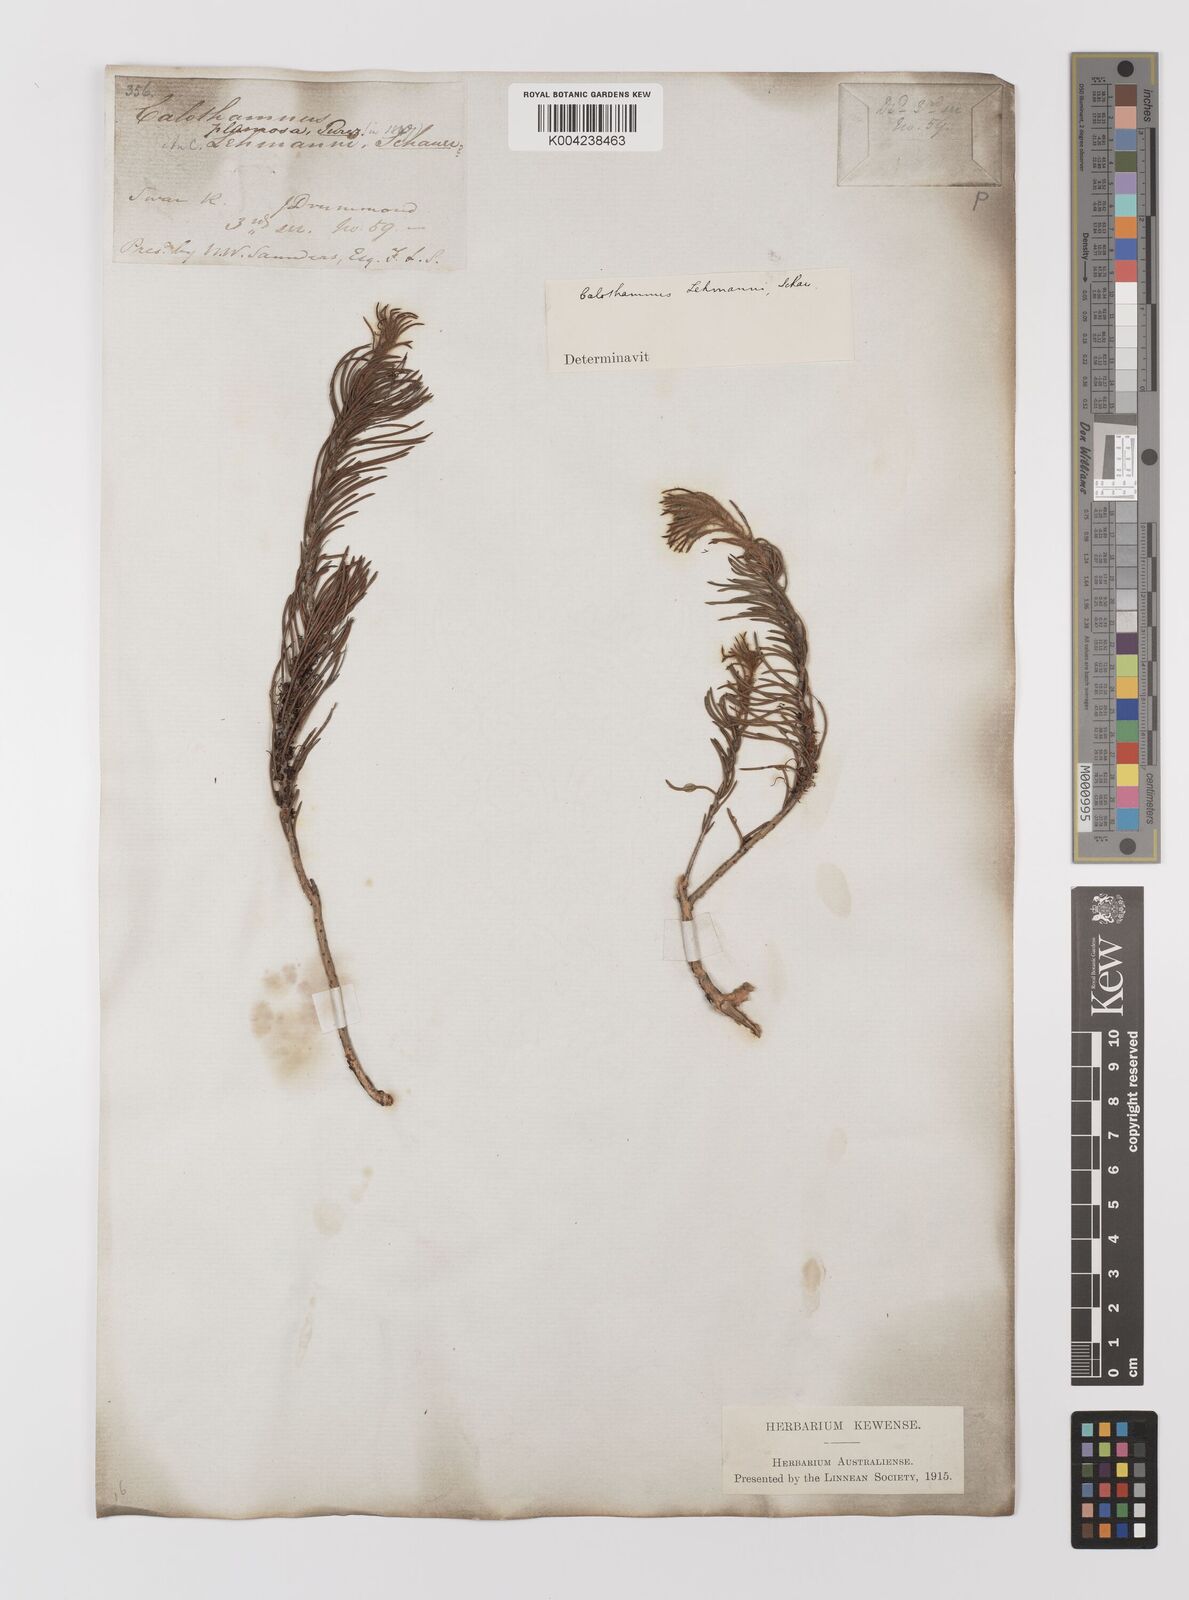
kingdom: Plantae
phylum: Tracheophyta
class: Magnoliopsida
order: Myrtales
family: Myrtaceae
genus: Melaleuca
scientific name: Melaleuca johannis-lehmannii
